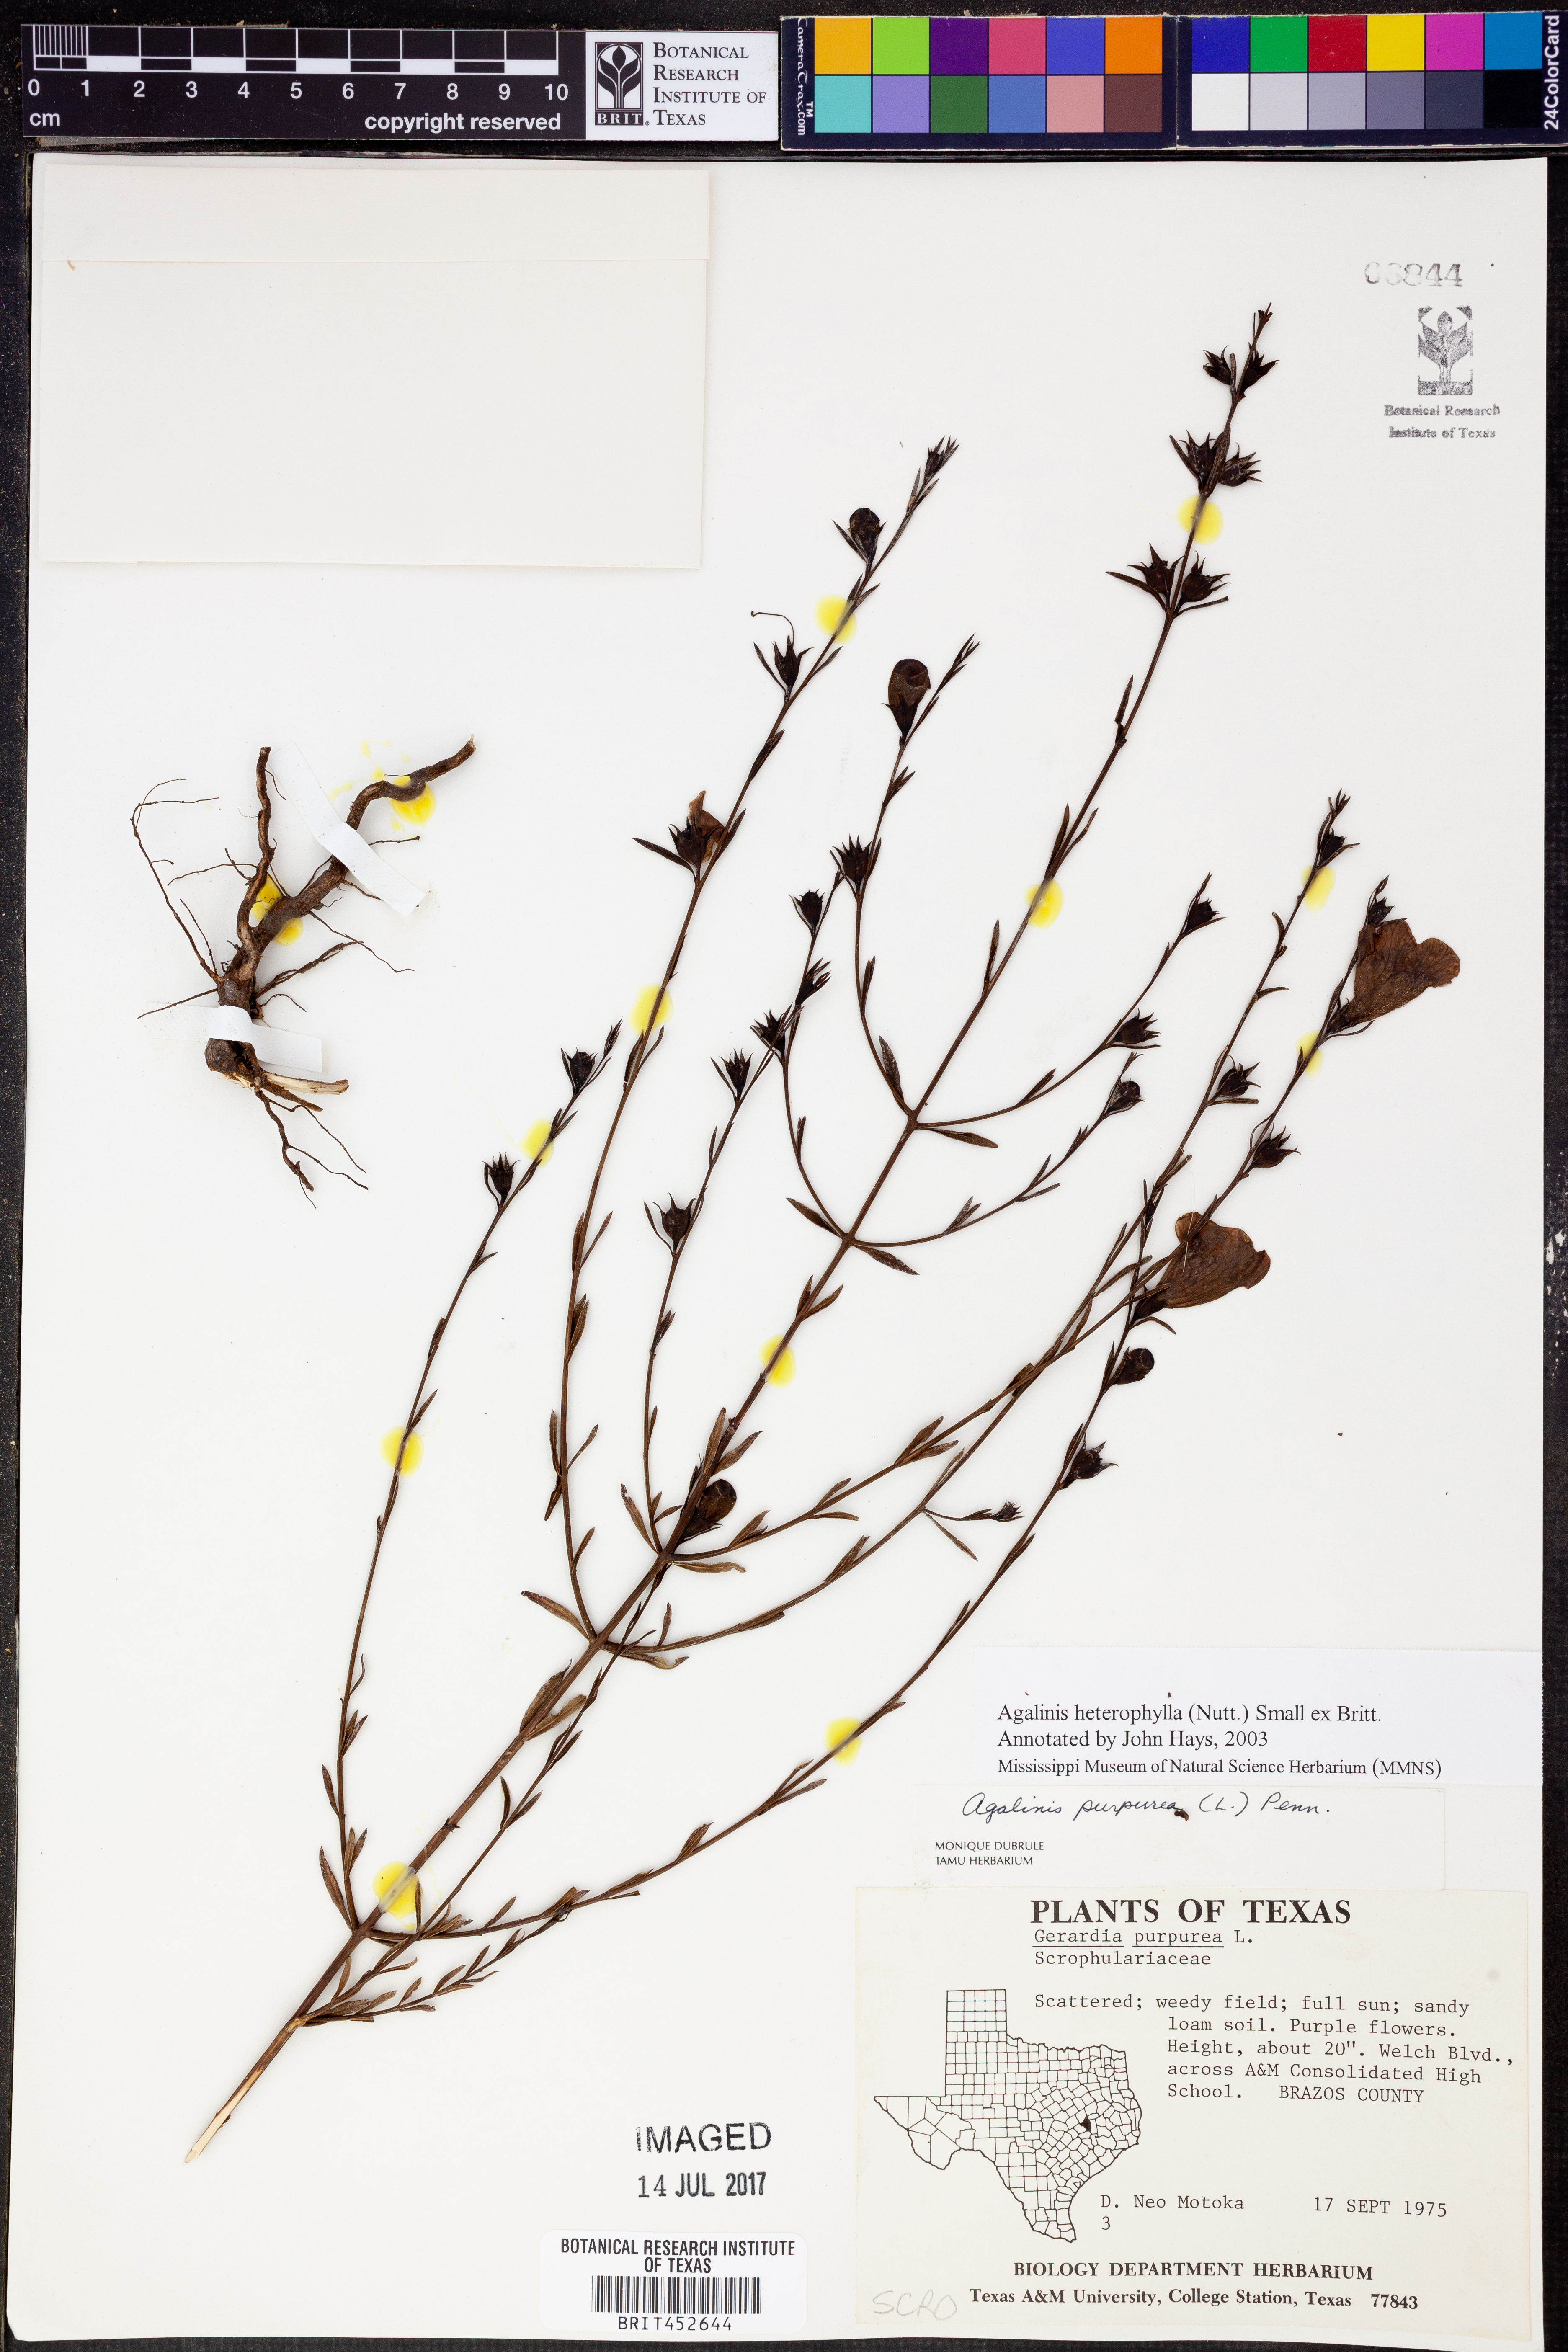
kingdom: Plantae
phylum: Tracheophyta
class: Magnoliopsida
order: Lamiales
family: Orobanchaceae
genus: Agalinis
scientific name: Agalinis heterophylla
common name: Prairie agalinis
